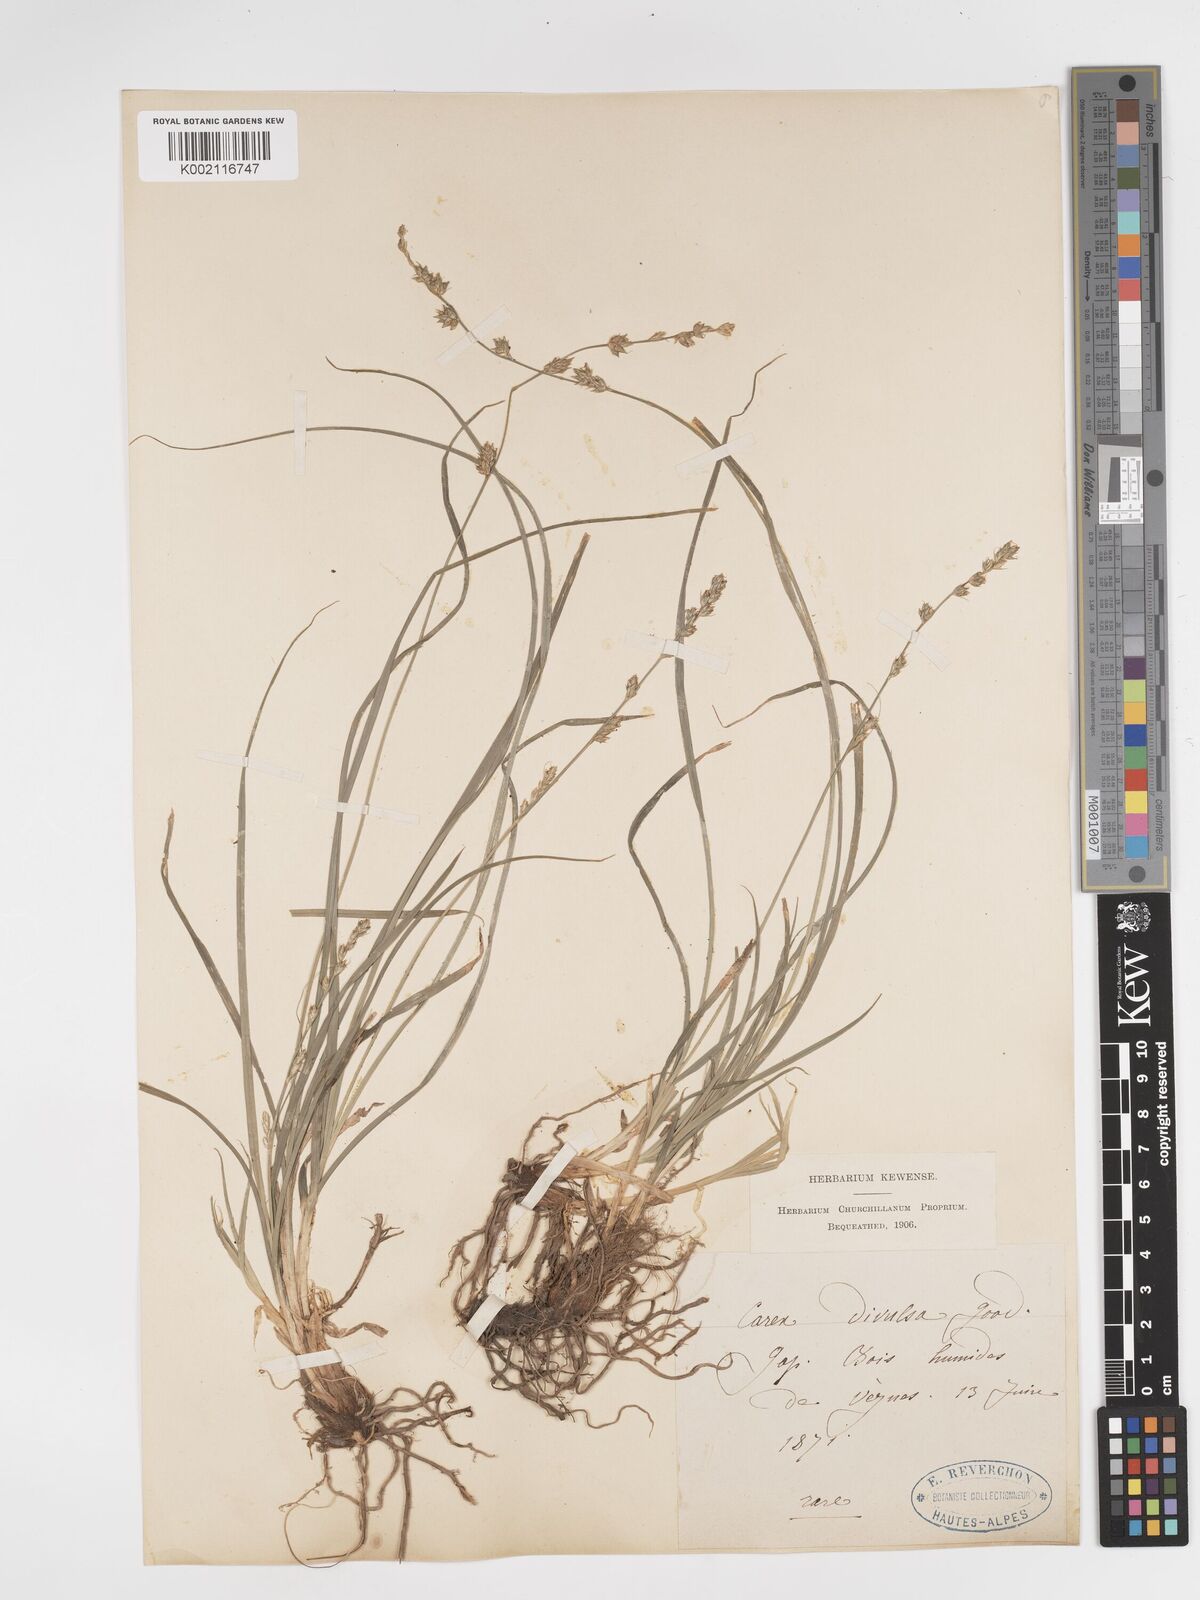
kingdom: Plantae
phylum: Tracheophyta
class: Liliopsida
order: Poales
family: Cyperaceae
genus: Carex
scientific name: Carex divulsa
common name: Grassland sedge
